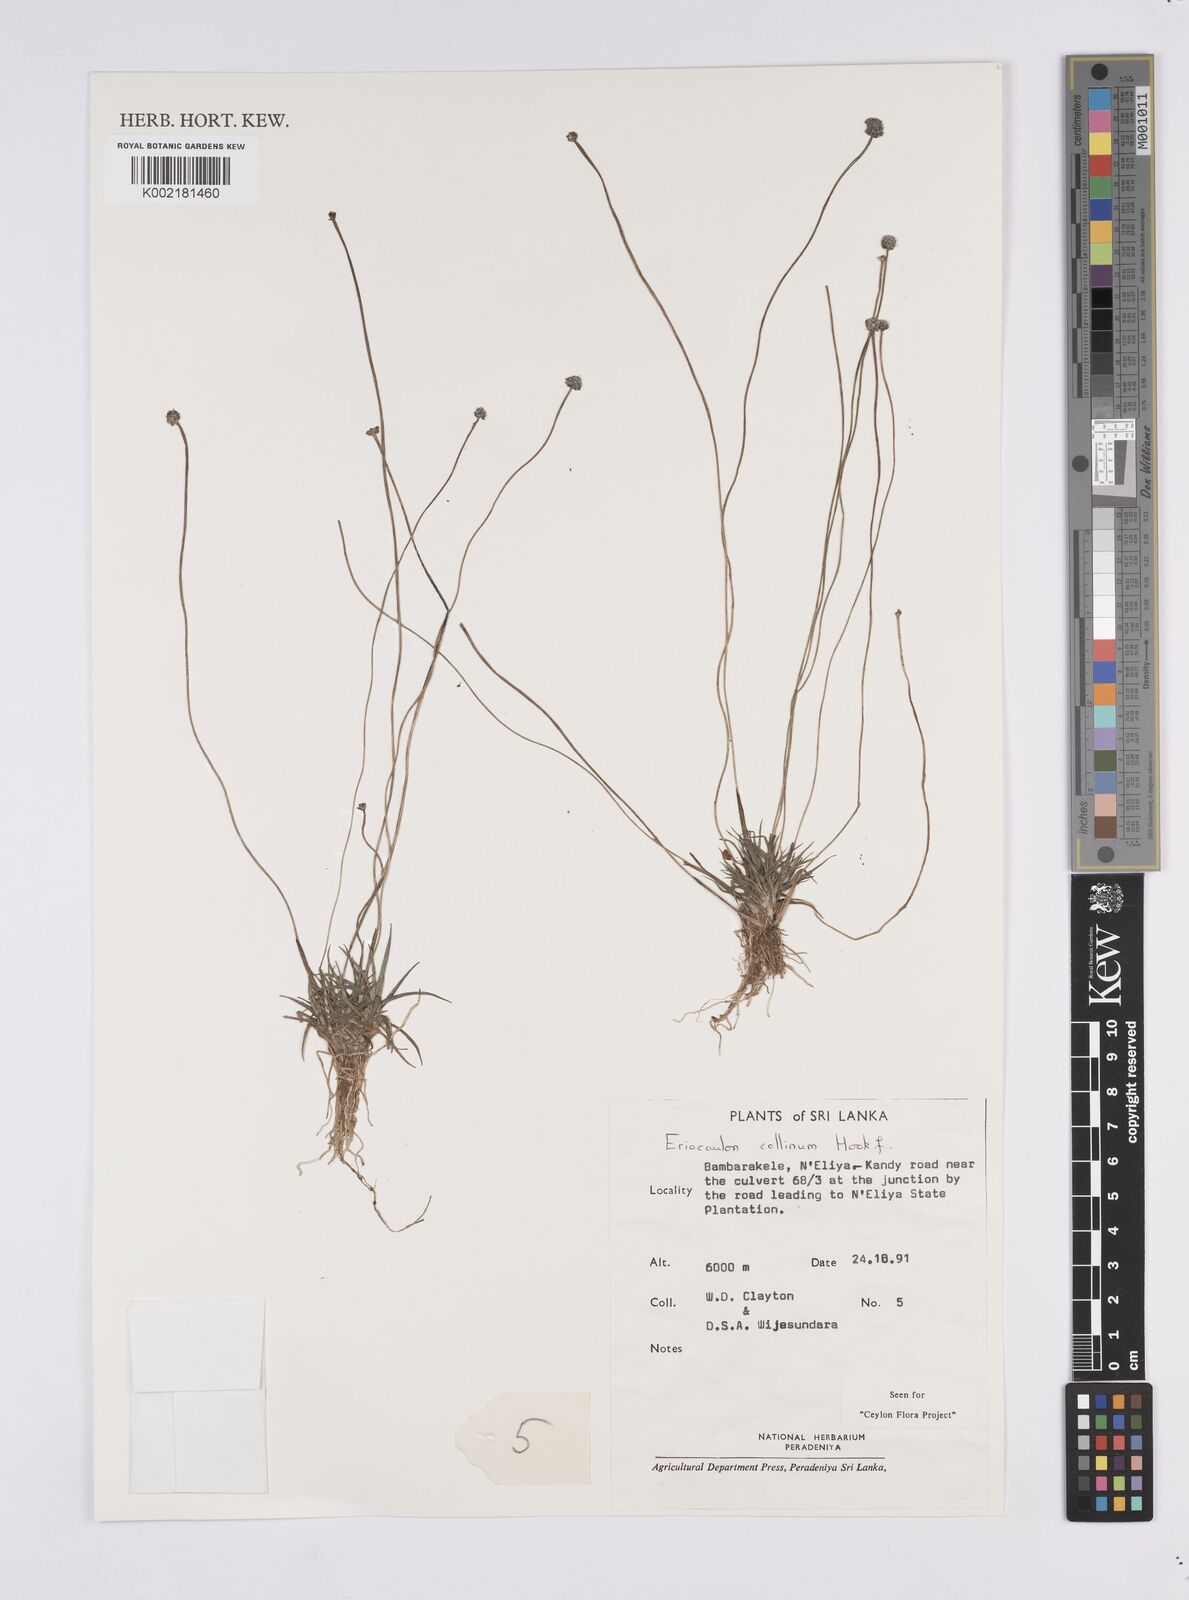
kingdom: Plantae
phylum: Tracheophyta
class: Liliopsida
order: Poales
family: Eriocaulaceae
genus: Eriocaulon
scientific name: Eriocaulon odoratum
